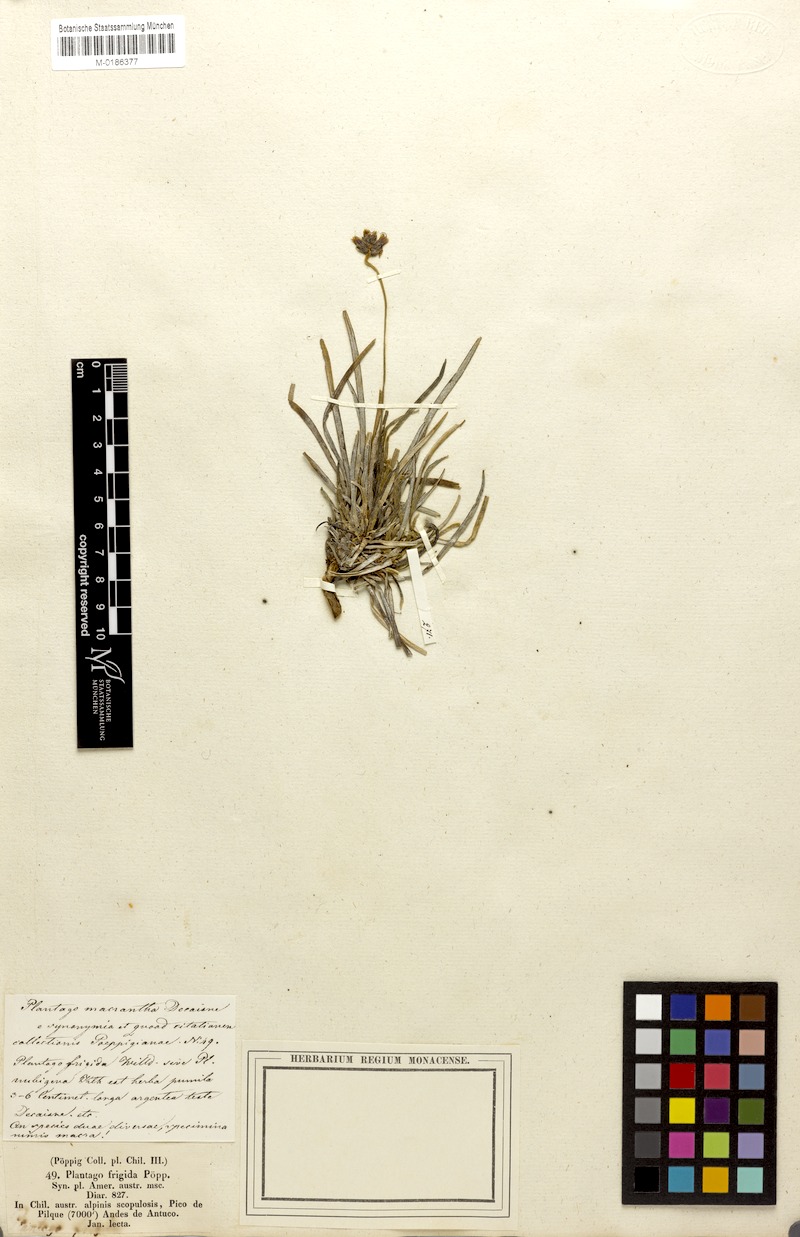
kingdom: Plantae
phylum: Tracheophyta
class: Magnoliopsida
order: Lamiales
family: Plantaginaceae
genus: Plantago
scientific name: Plantago grandiflora
